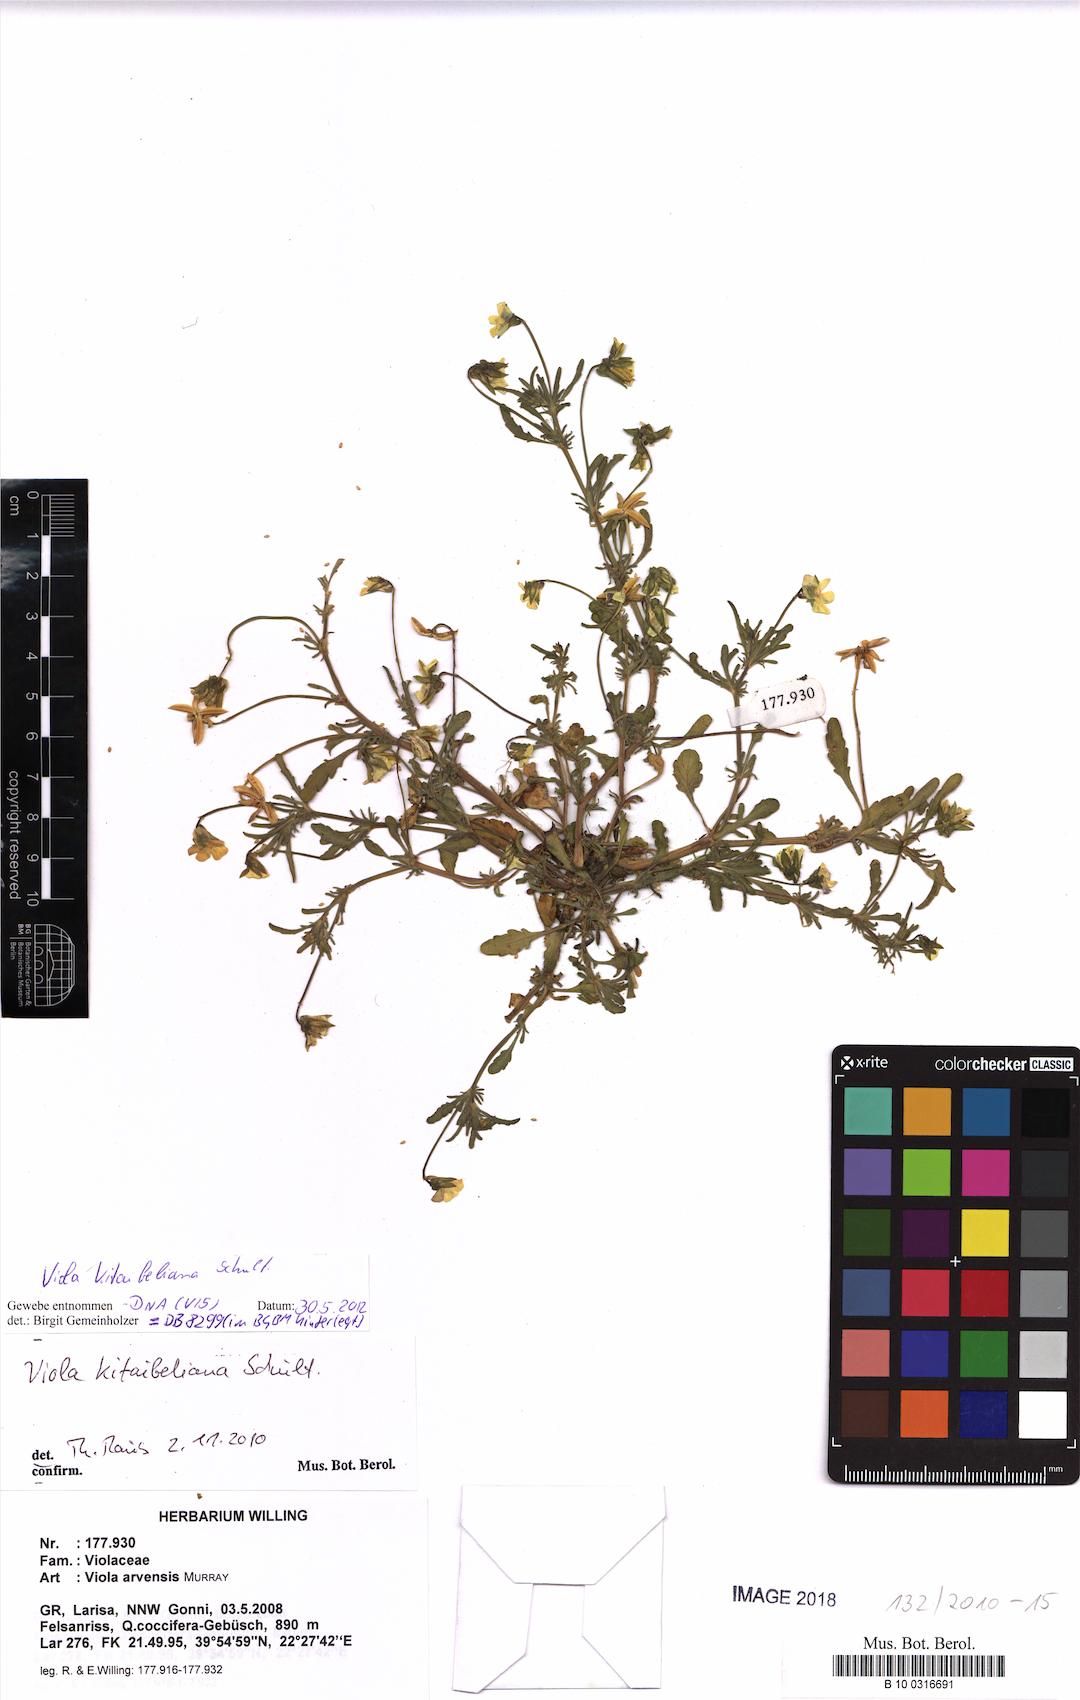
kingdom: Plantae
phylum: Tracheophyta
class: Magnoliopsida
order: Malpighiales
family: Violaceae
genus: Viola
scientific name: Viola kitaibeliana
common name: Dwarf pansy
